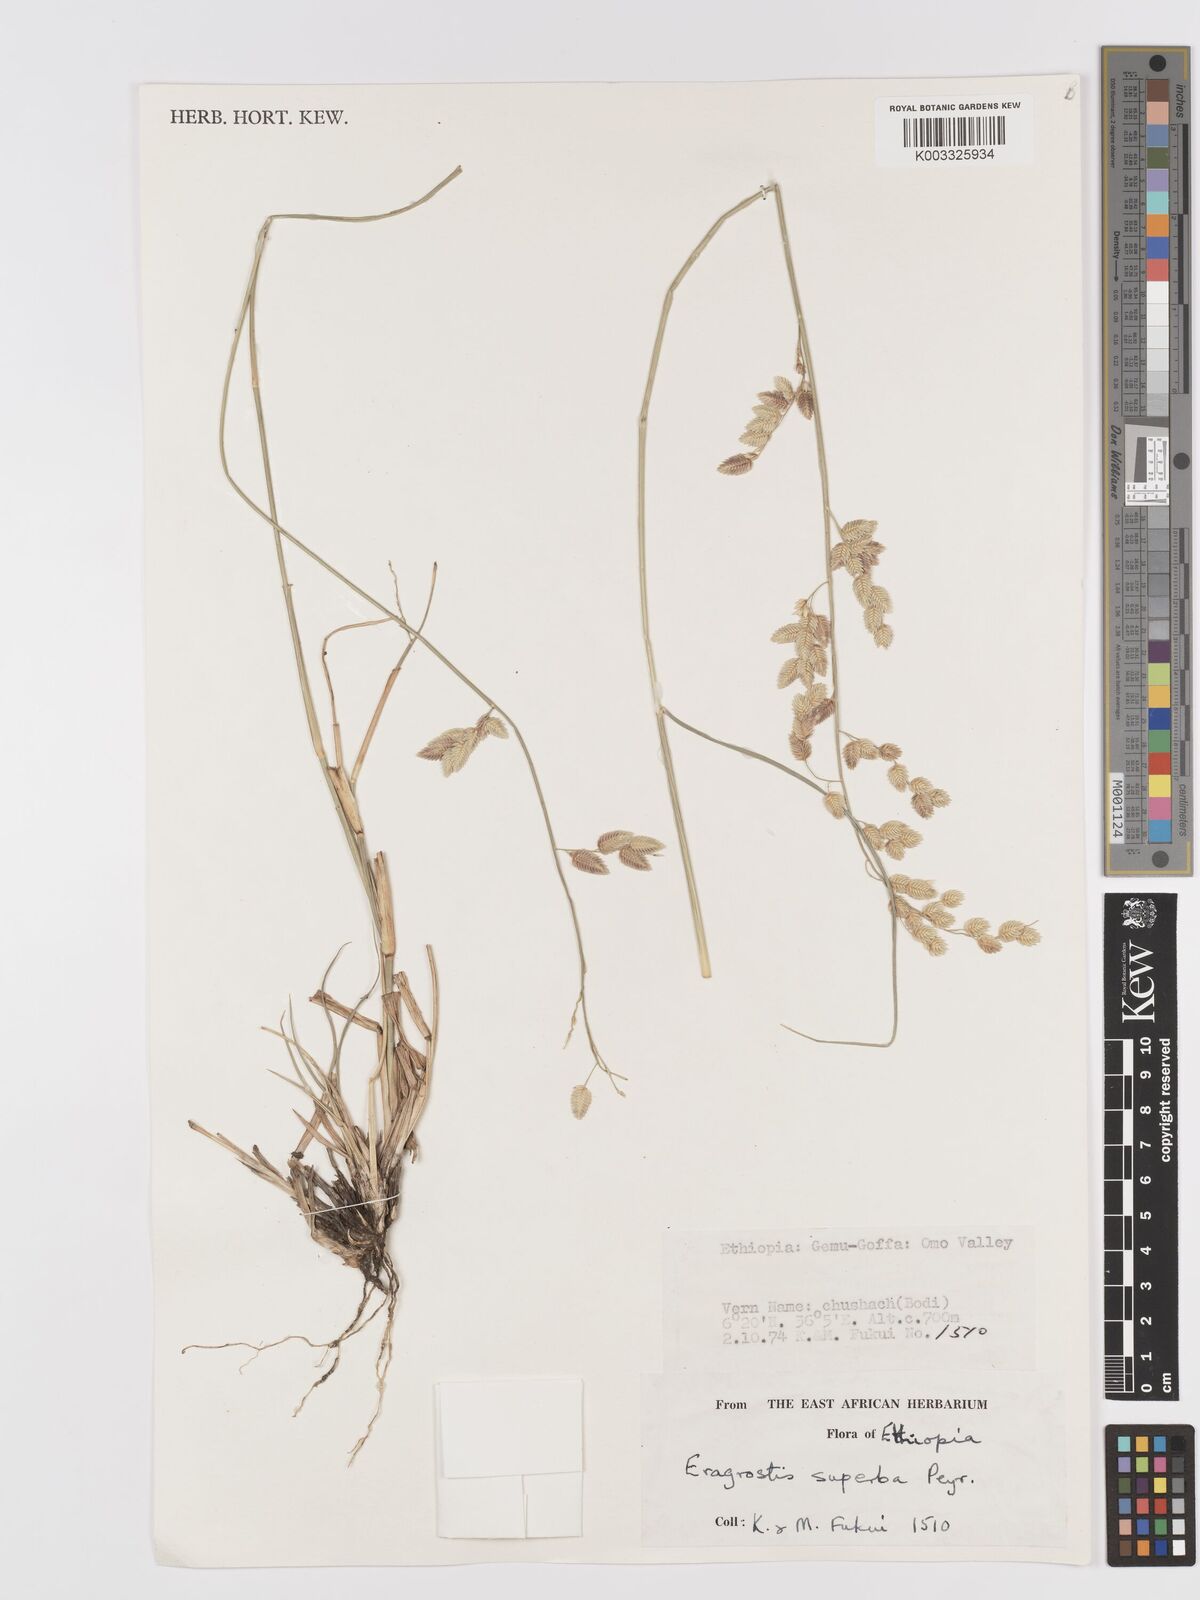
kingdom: Plantae
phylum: Tracheophyta
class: Liliopsida
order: Poales
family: Poaceae
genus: Eragrostis
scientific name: Eragrostis superba
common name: Wilman lovegrass
